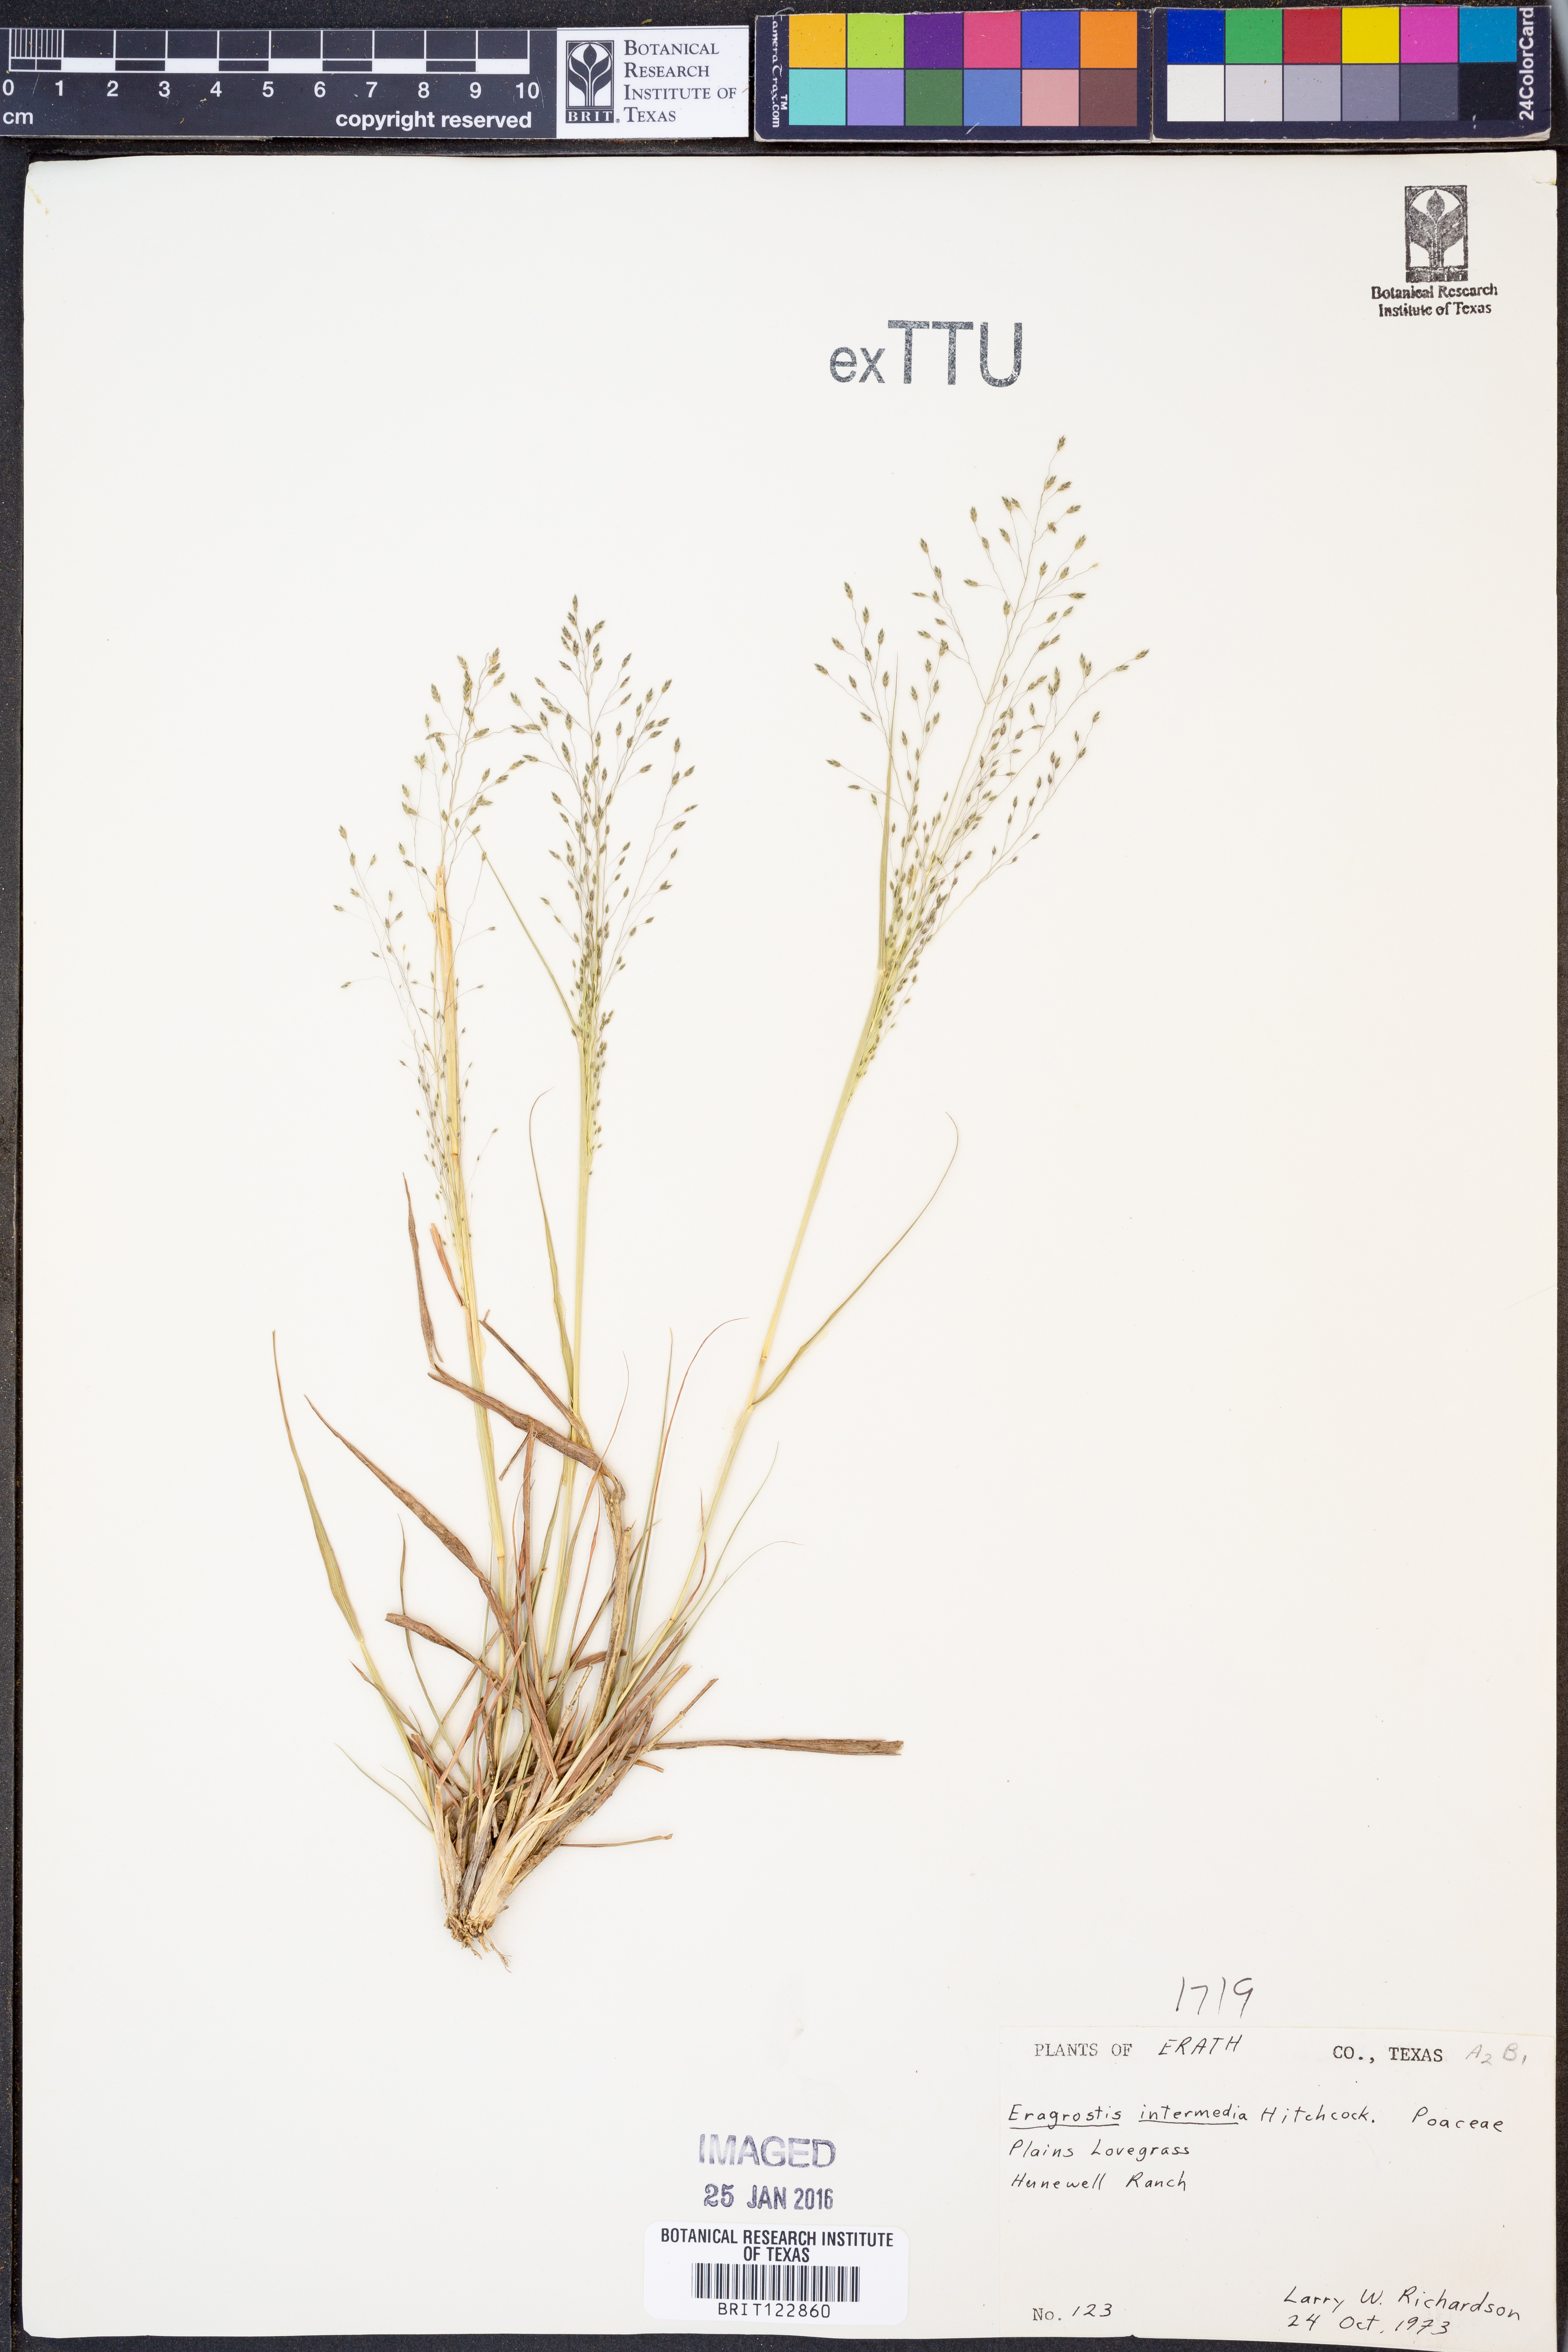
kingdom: Plantae
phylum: Tracheophyta
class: Liliopsida
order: Poales
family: Poaceae
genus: Eragrostis
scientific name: Eragrostis intermedia
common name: Plains love grass
